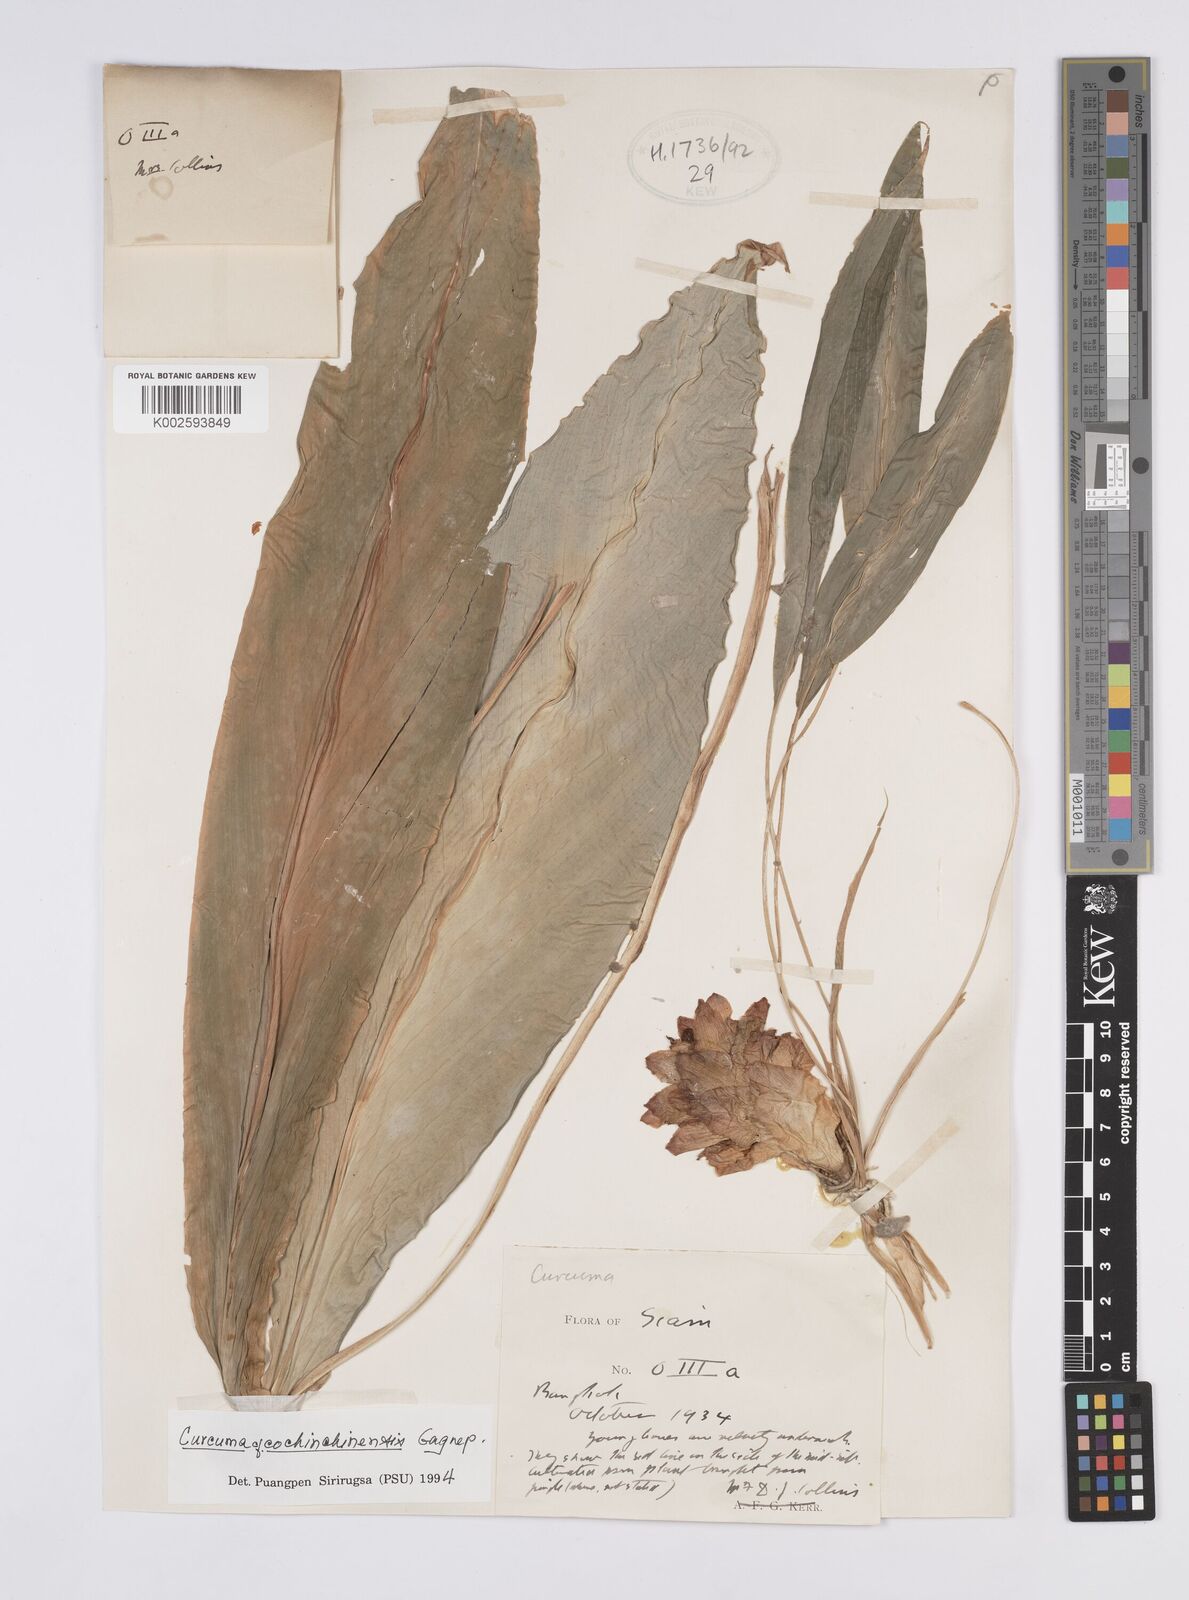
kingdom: Plantae
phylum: Tracheophyta
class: Liliopsida
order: Zingiberales
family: Zingiberaceae
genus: Curcuma
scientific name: Curcuma cochinchinensis
